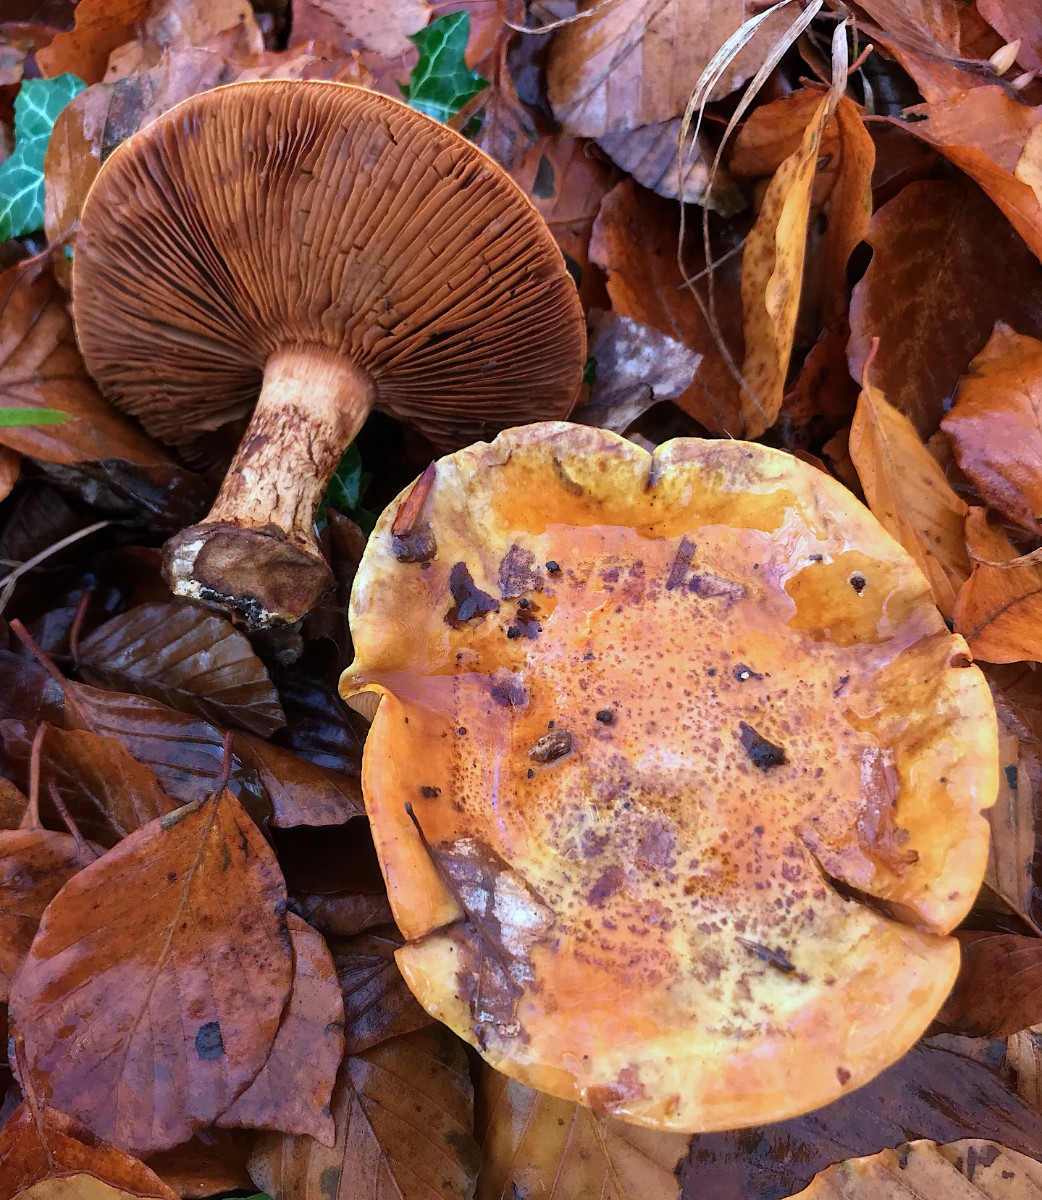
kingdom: Fungi
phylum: Basidiomycota
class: Agaricomycetes
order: Agaricales
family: Cortinariaceae
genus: Calonarius
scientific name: Calonarius alcalinophilus
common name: gyldenbrun slørhat
